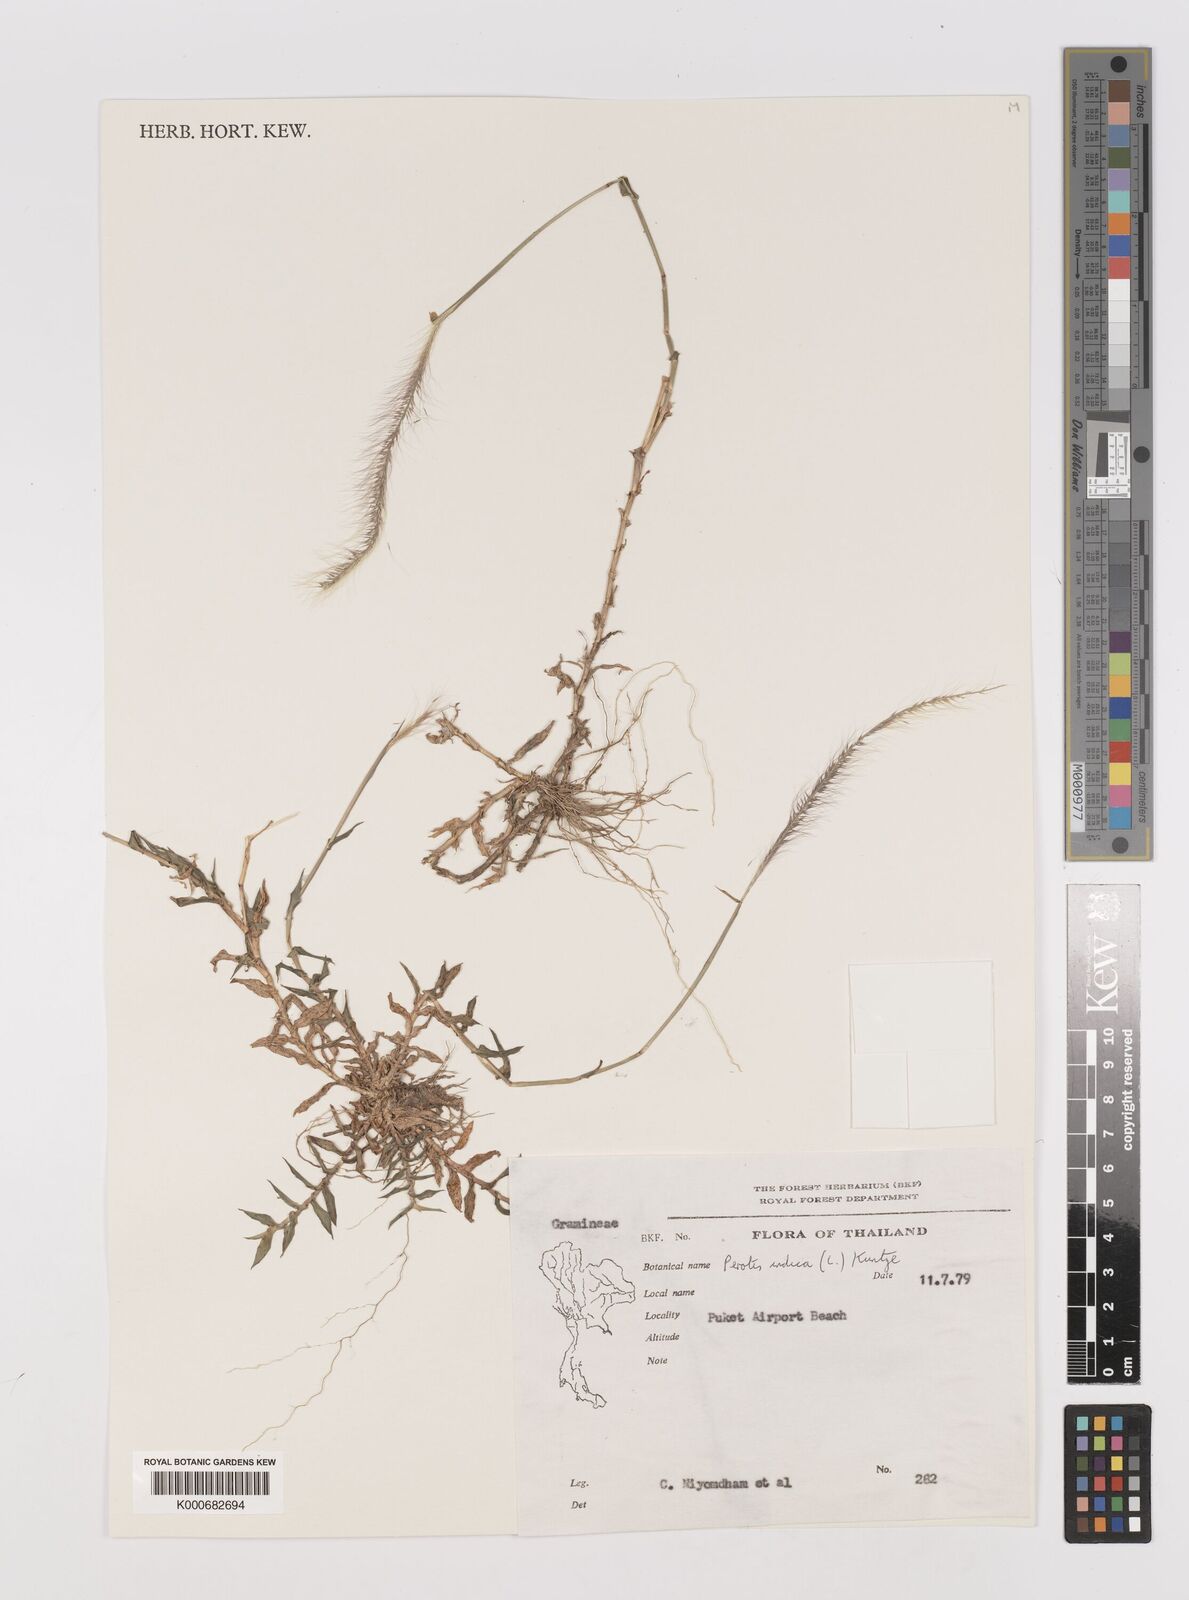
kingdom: Plantae
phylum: Tracheophyta
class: Liliopsida
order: Poales
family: Poaceae
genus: Perotis
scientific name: Perotis indica
